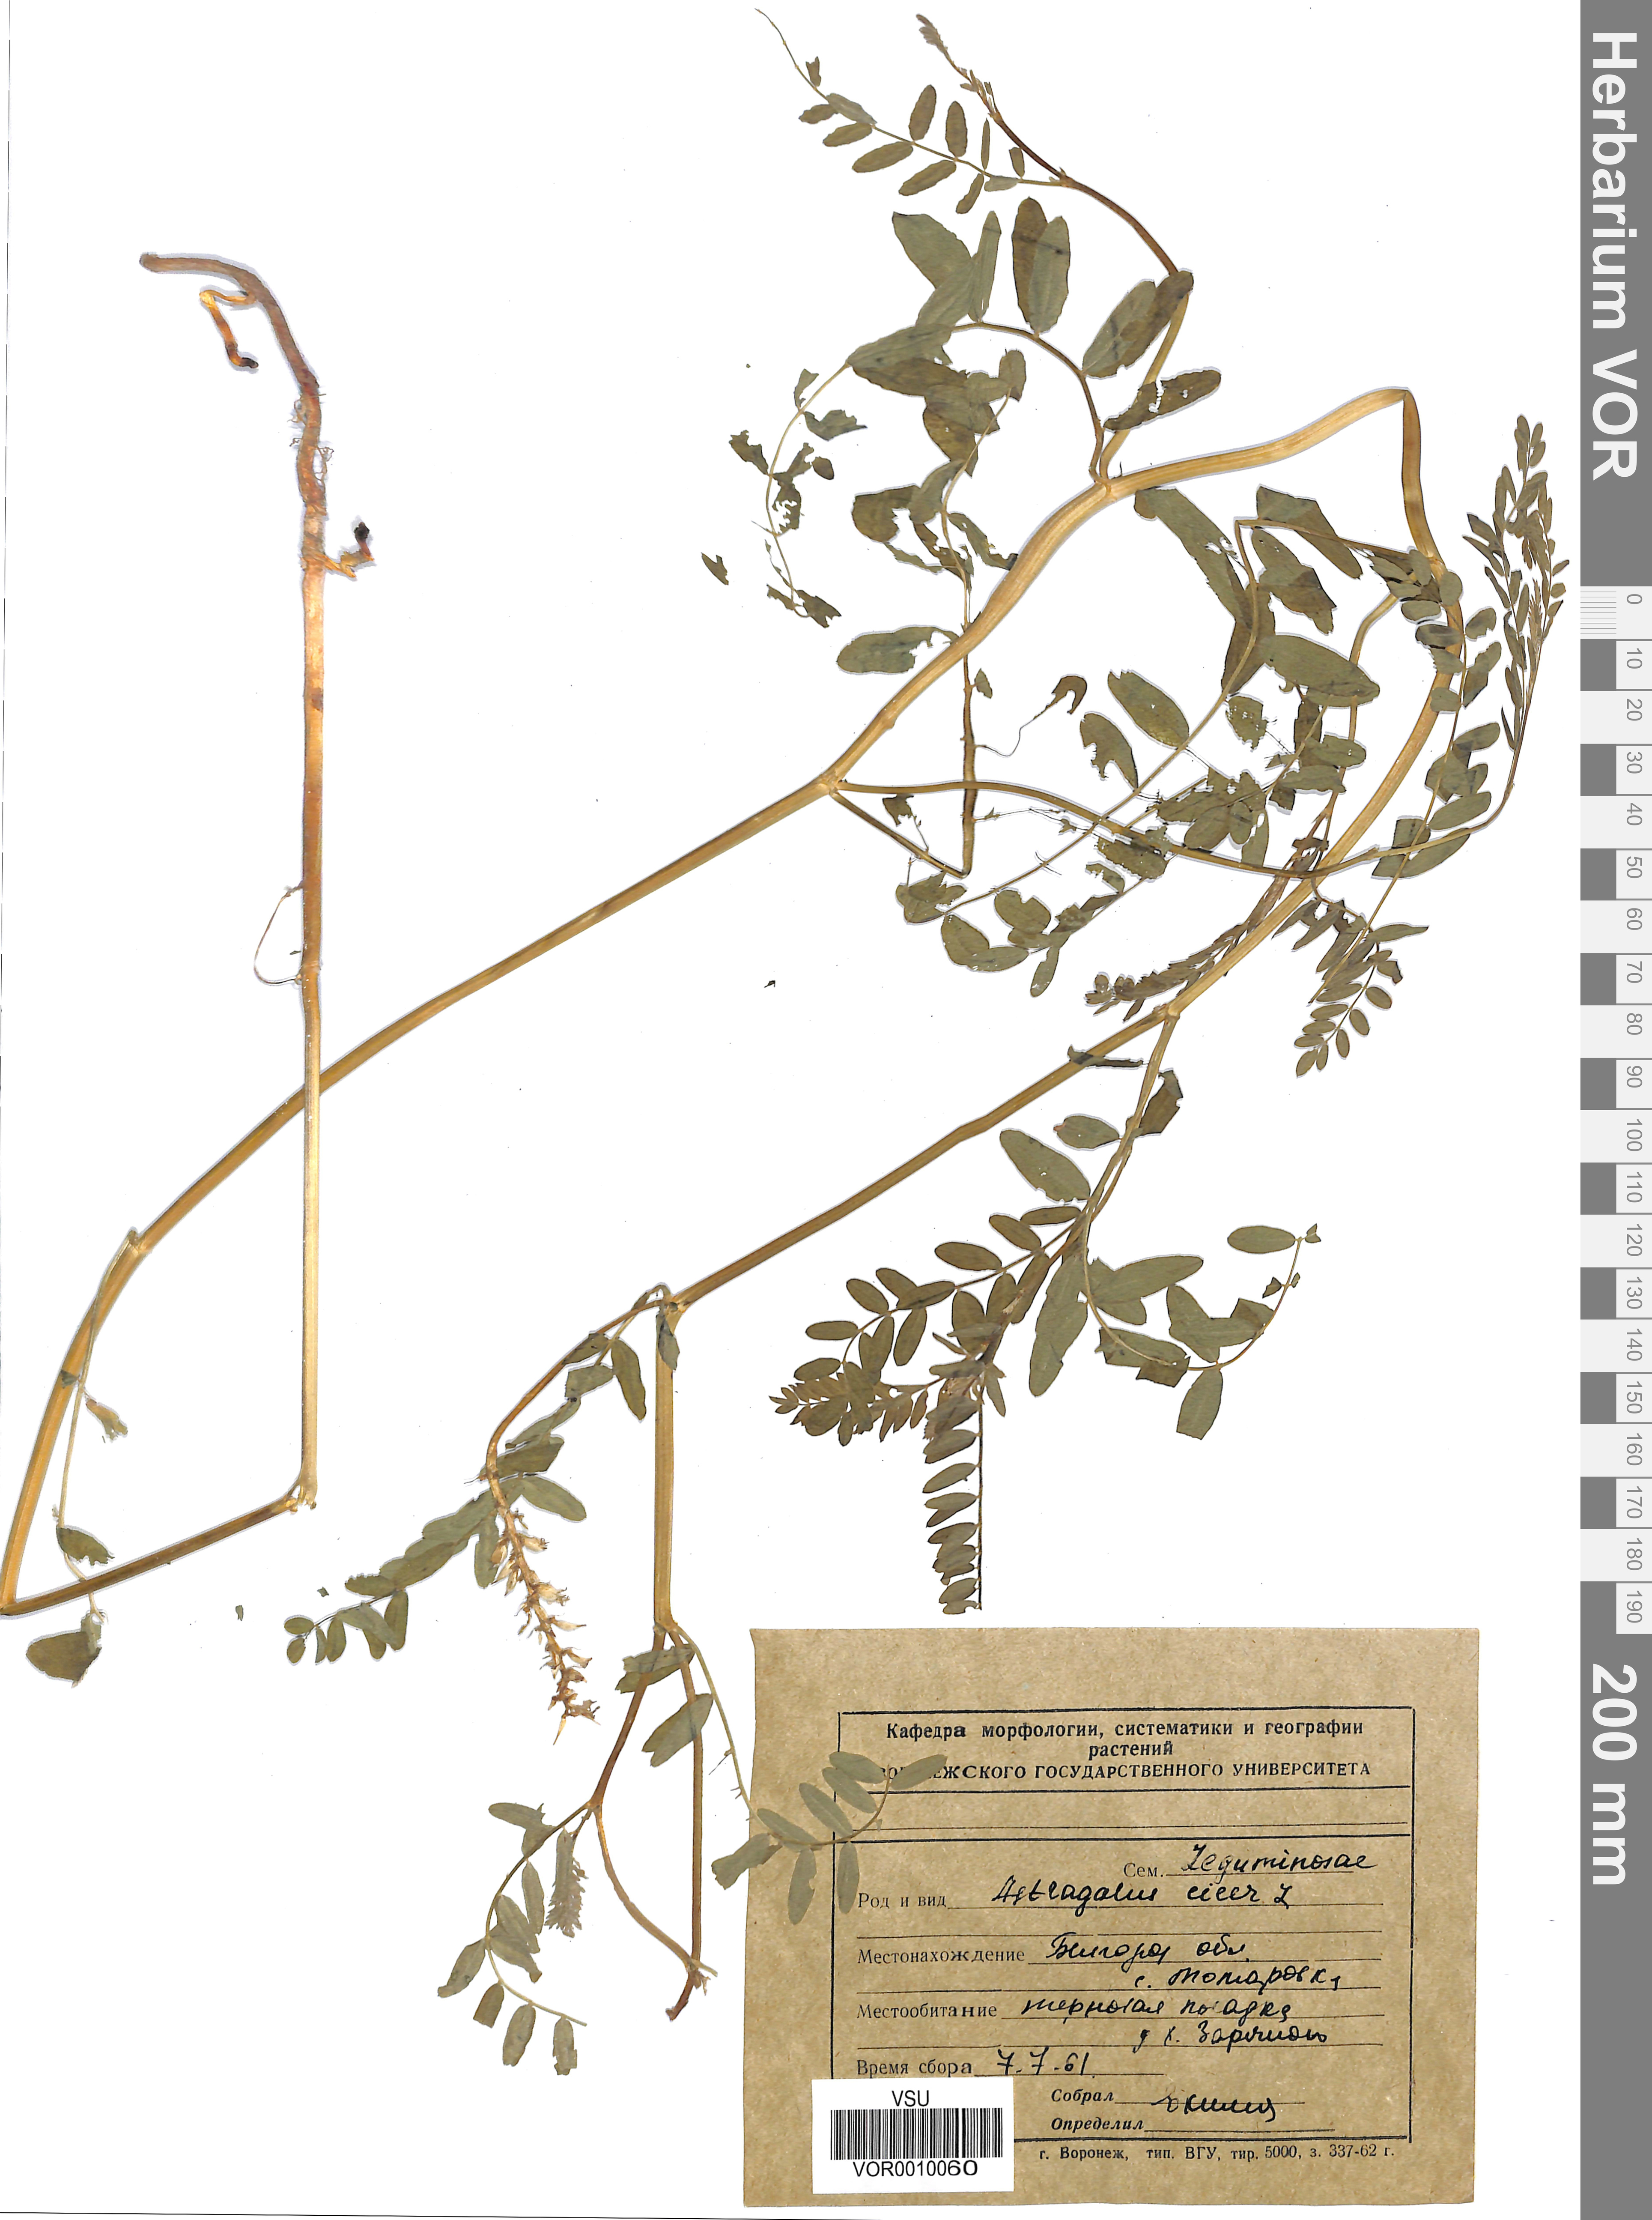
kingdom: Plantae
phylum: Tracheophyta
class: Magnoliopsida
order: Fabales
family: Fabaceae
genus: Astragalus
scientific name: Astragalus cicer
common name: Chick-pea milk-vetch
